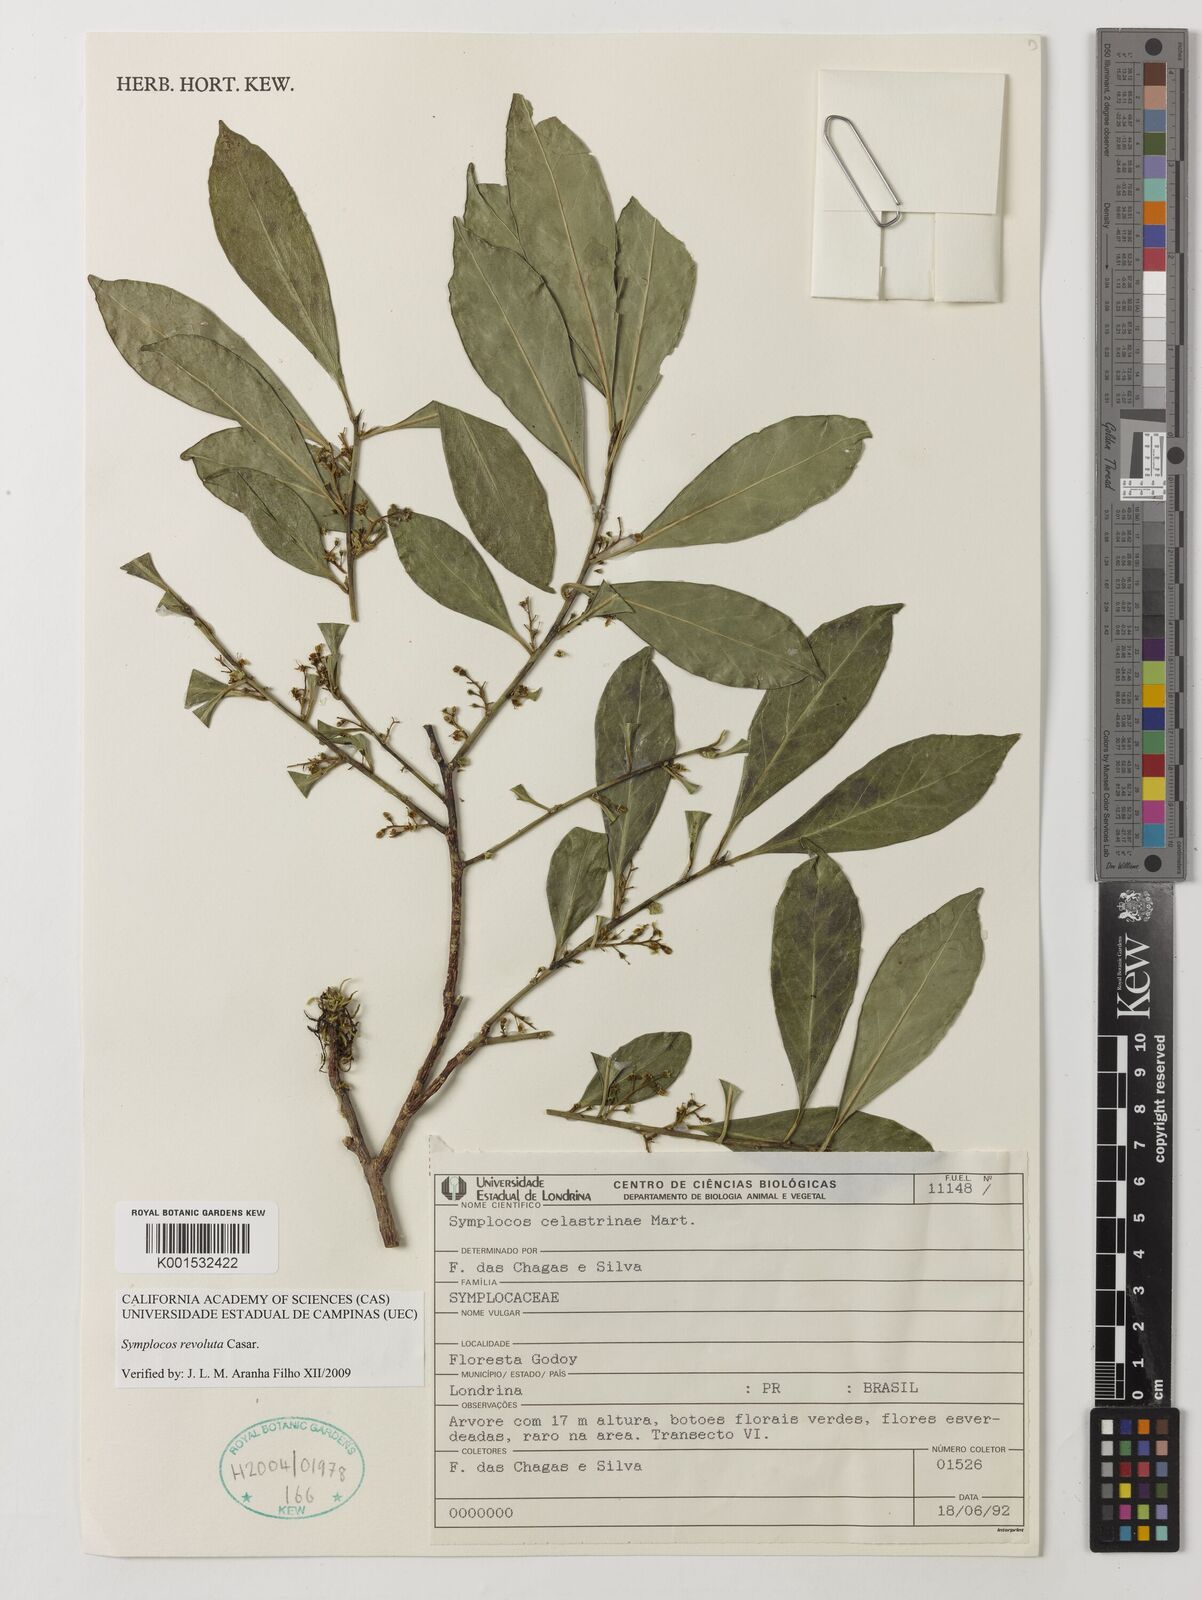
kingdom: Plantae
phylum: Tracheophyta
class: Magnoliopsida
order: Ericales
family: Symplocaceae
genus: Symplocos
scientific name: Symplocos revoluta
